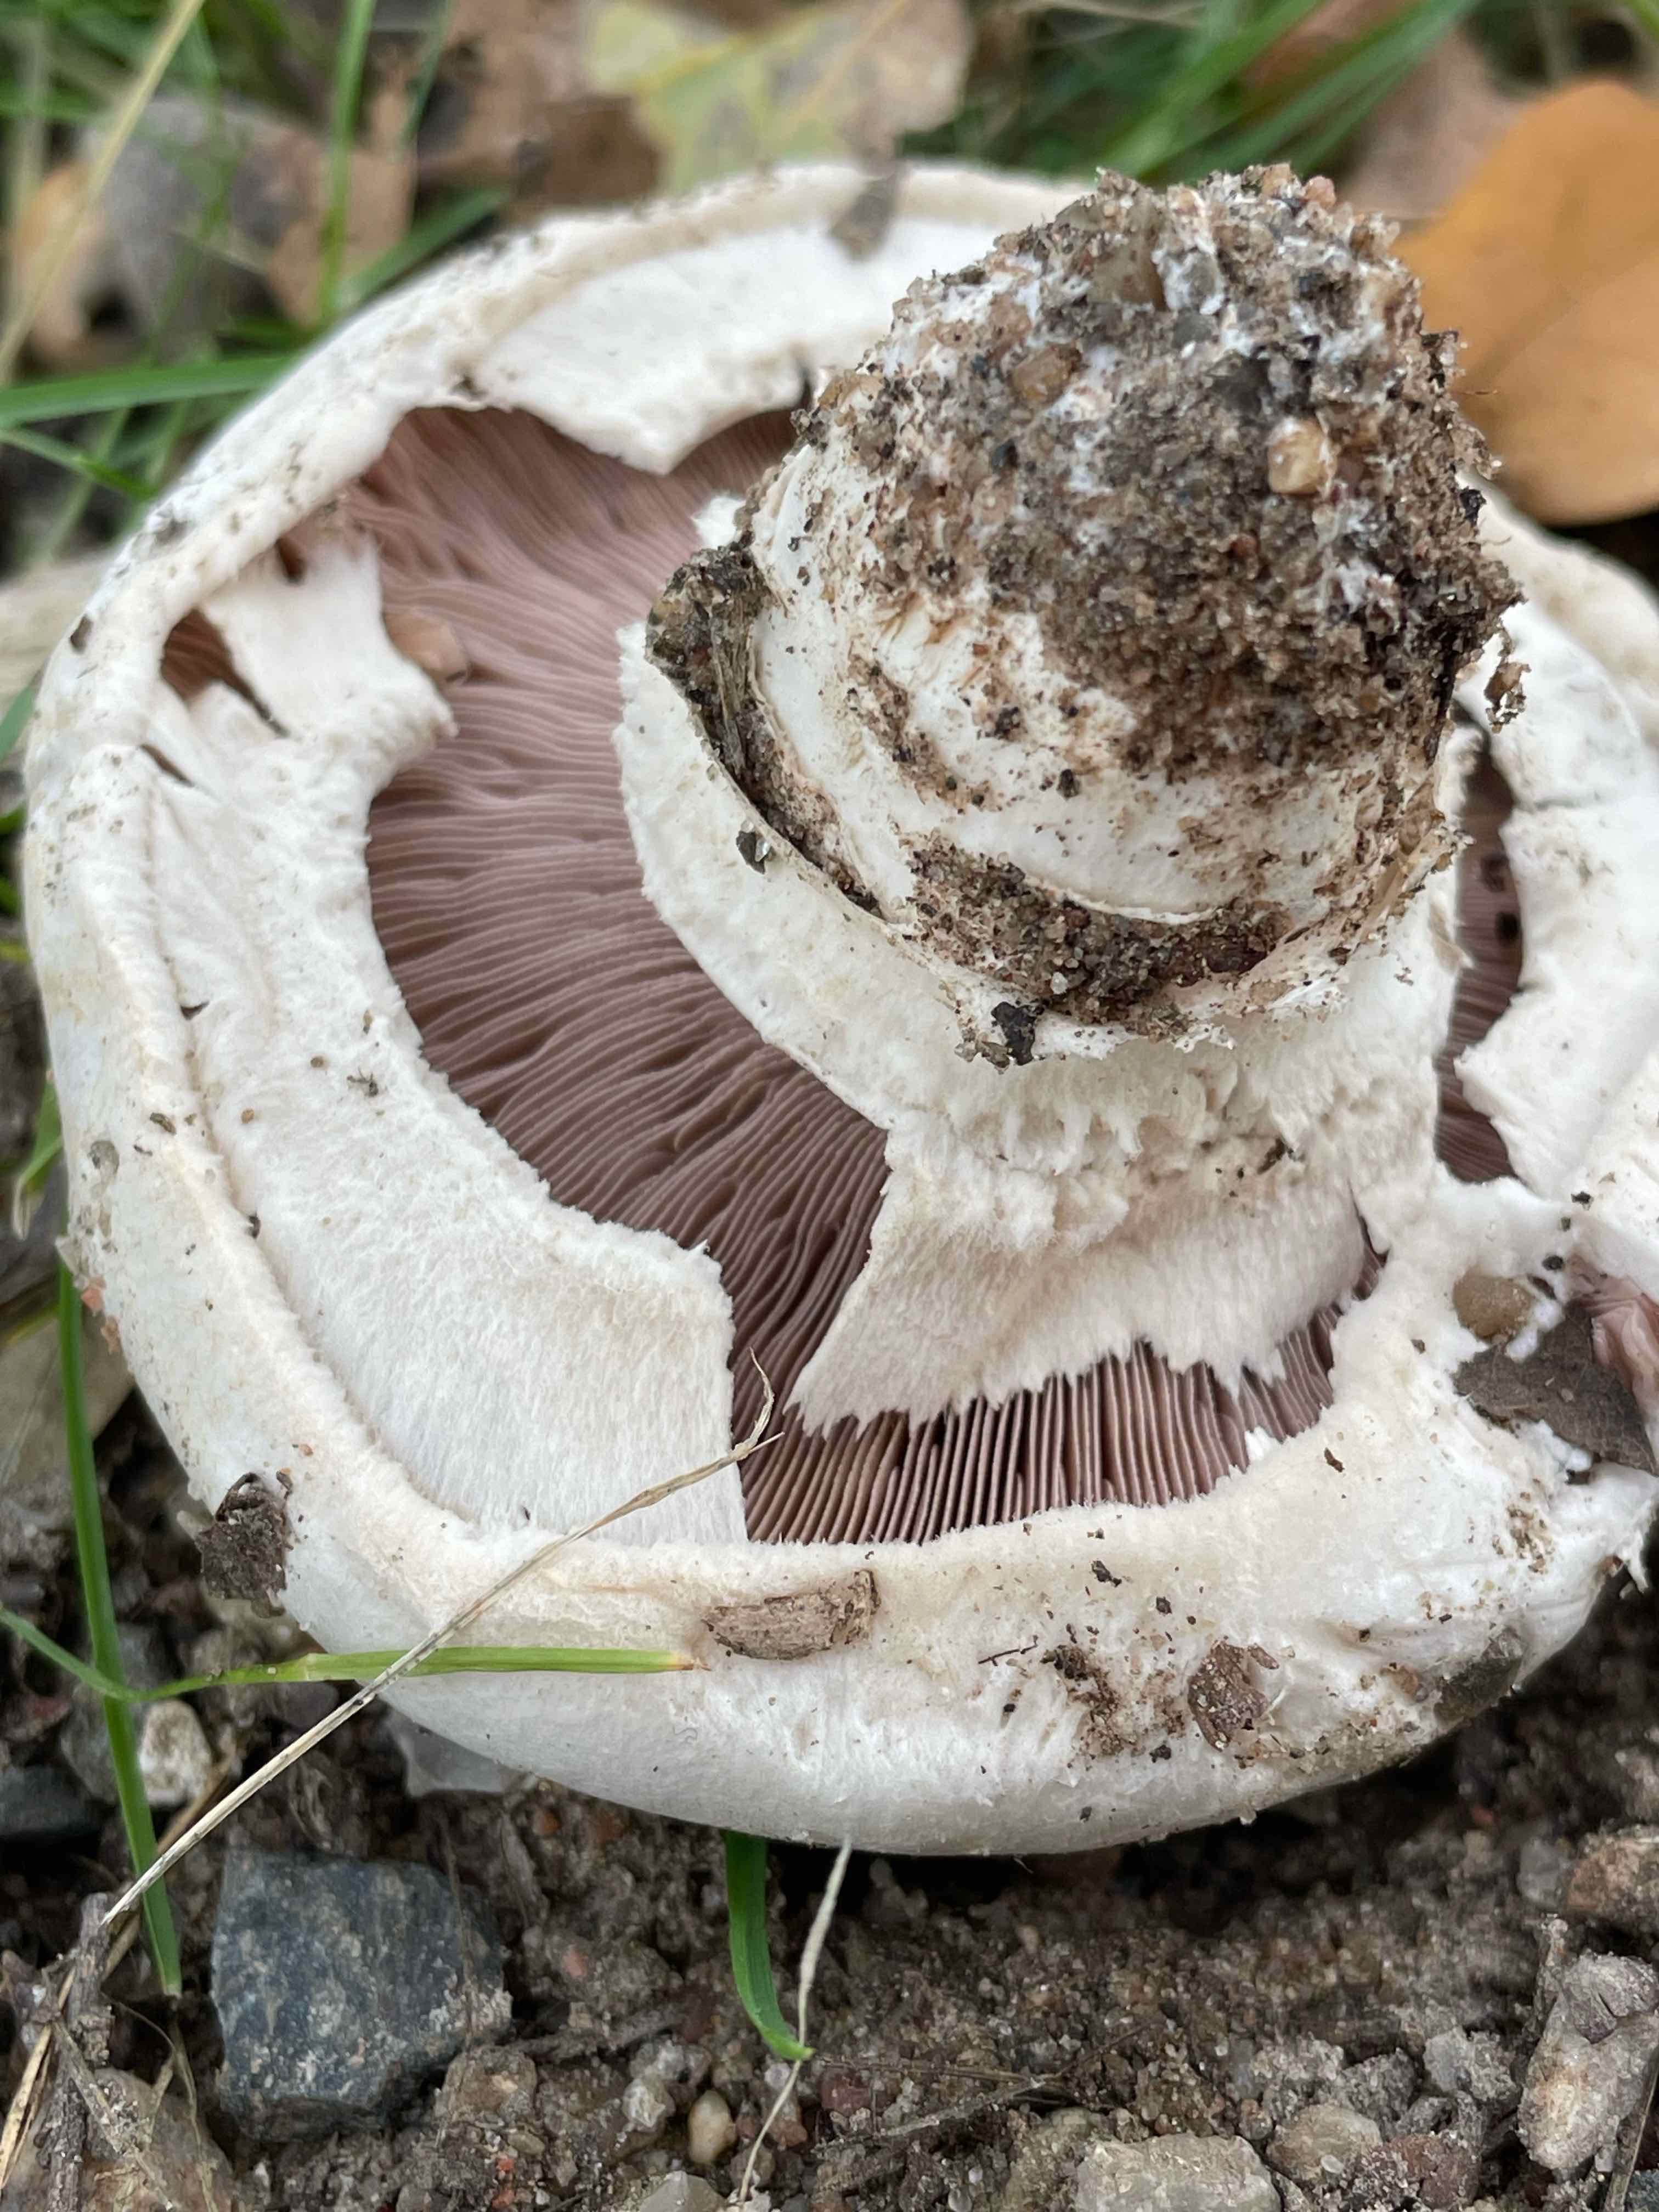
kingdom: Fungi
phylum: Basidiomycota
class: Agaricomycetes
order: Agaricales
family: Agaricaceae
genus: Agaricus
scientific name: Agaricus bitorquis
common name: vej-champignon
